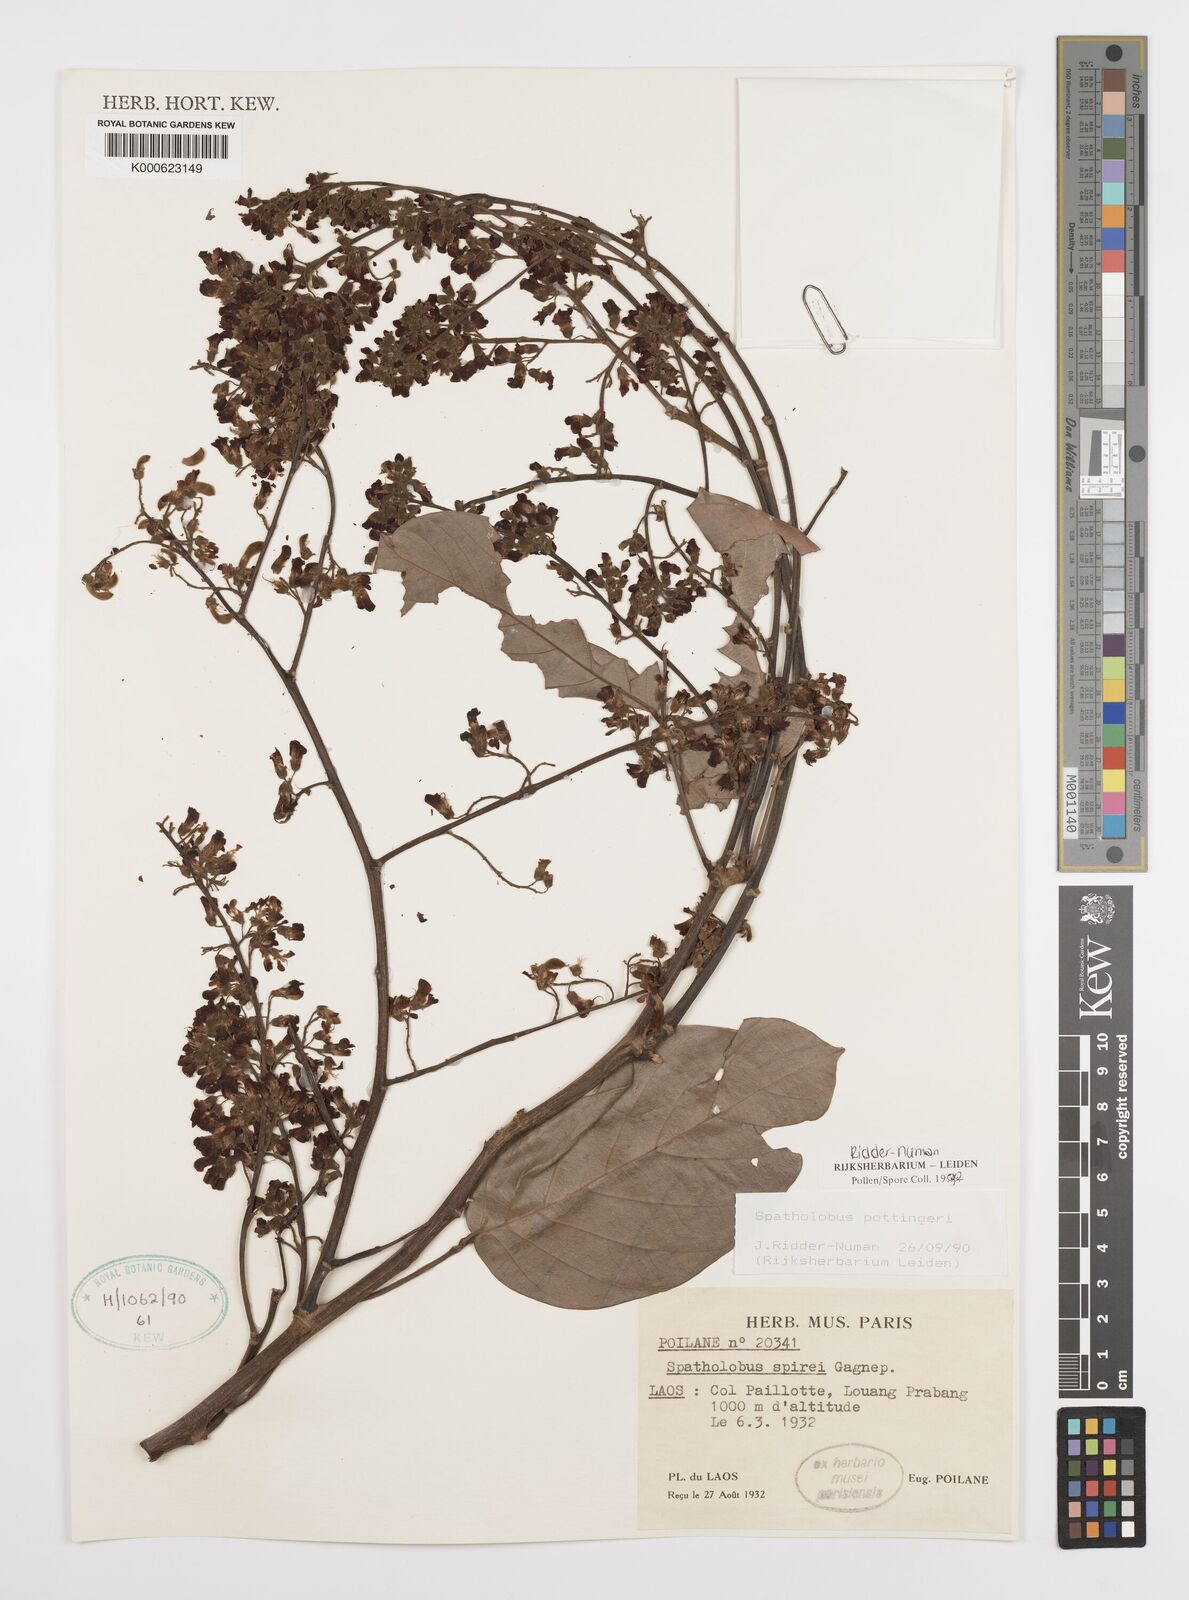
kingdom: Plantae
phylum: Tracheophyta
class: Magnoliopsida
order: Fabales
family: Fabaceae
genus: Spatholobus
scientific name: Spatholobus pottingeri
